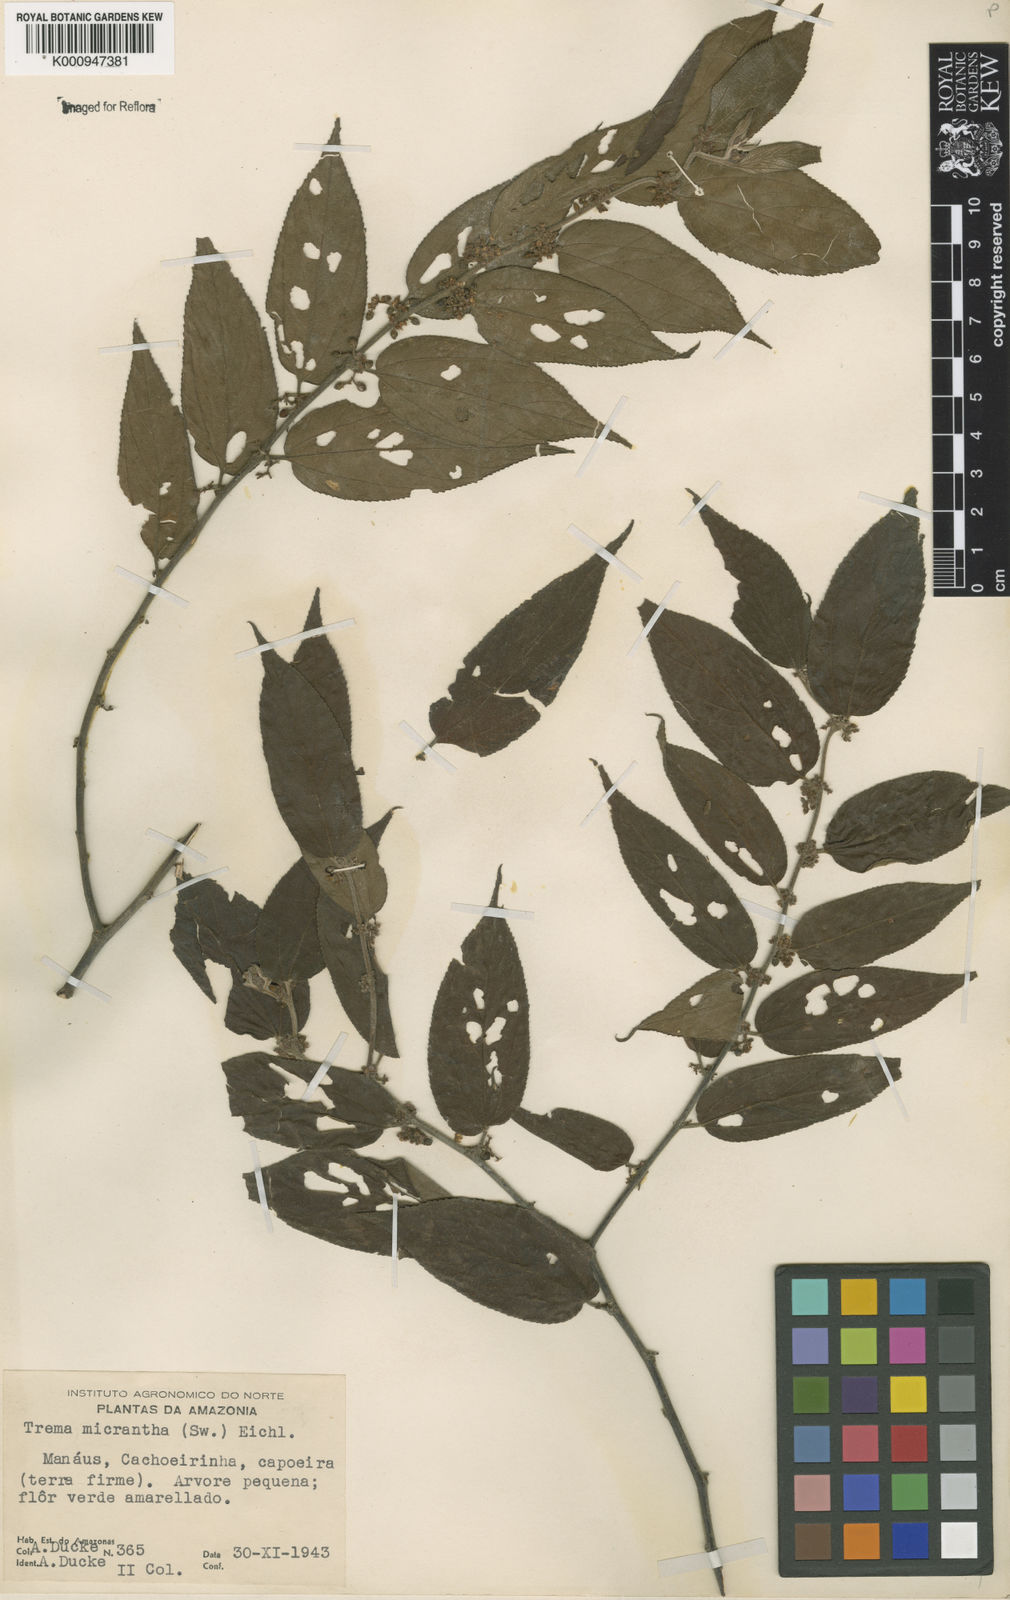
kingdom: Plantae
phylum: Tracheophyta
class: Magnoliopsida
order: Rosales
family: Cannabaceae
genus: Trema
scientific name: Trema micranthum
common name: Jamaican nettletree
